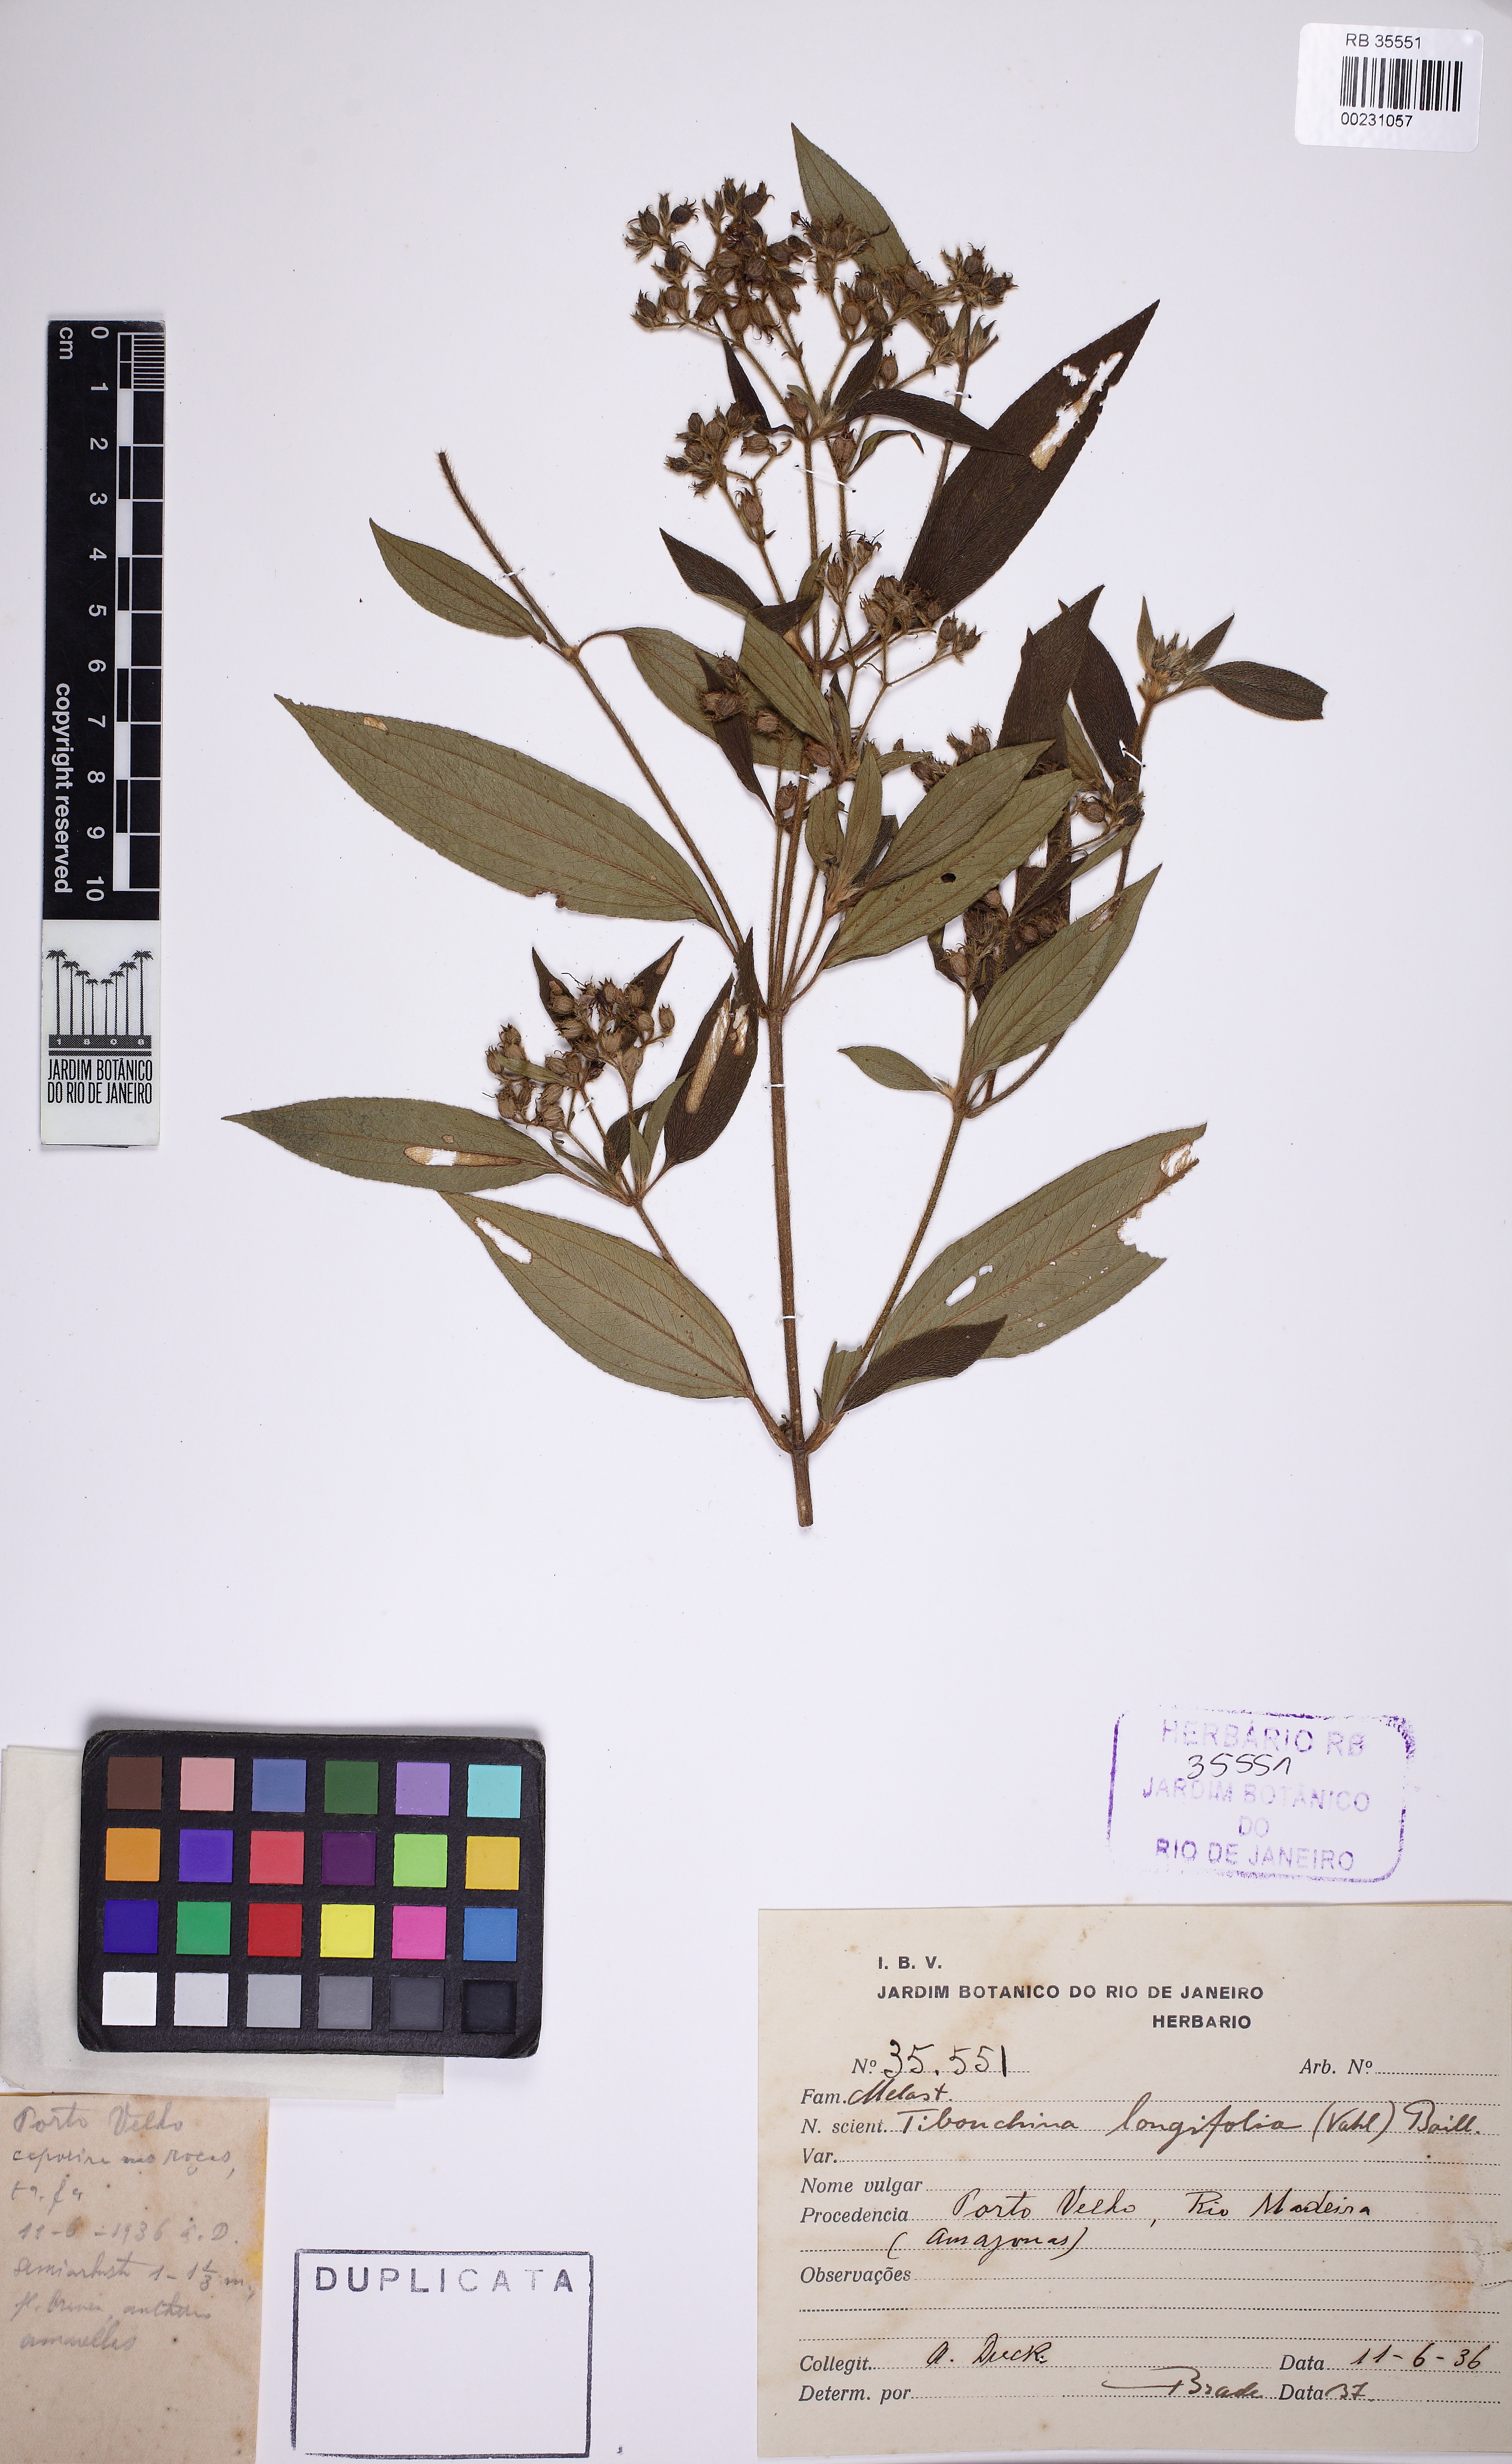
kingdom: Plantae
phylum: Tracheophyta
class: Magnoliopsida
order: Myrtales
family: Melastomataceae
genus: Pleroma
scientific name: Pleroma aegopogon
